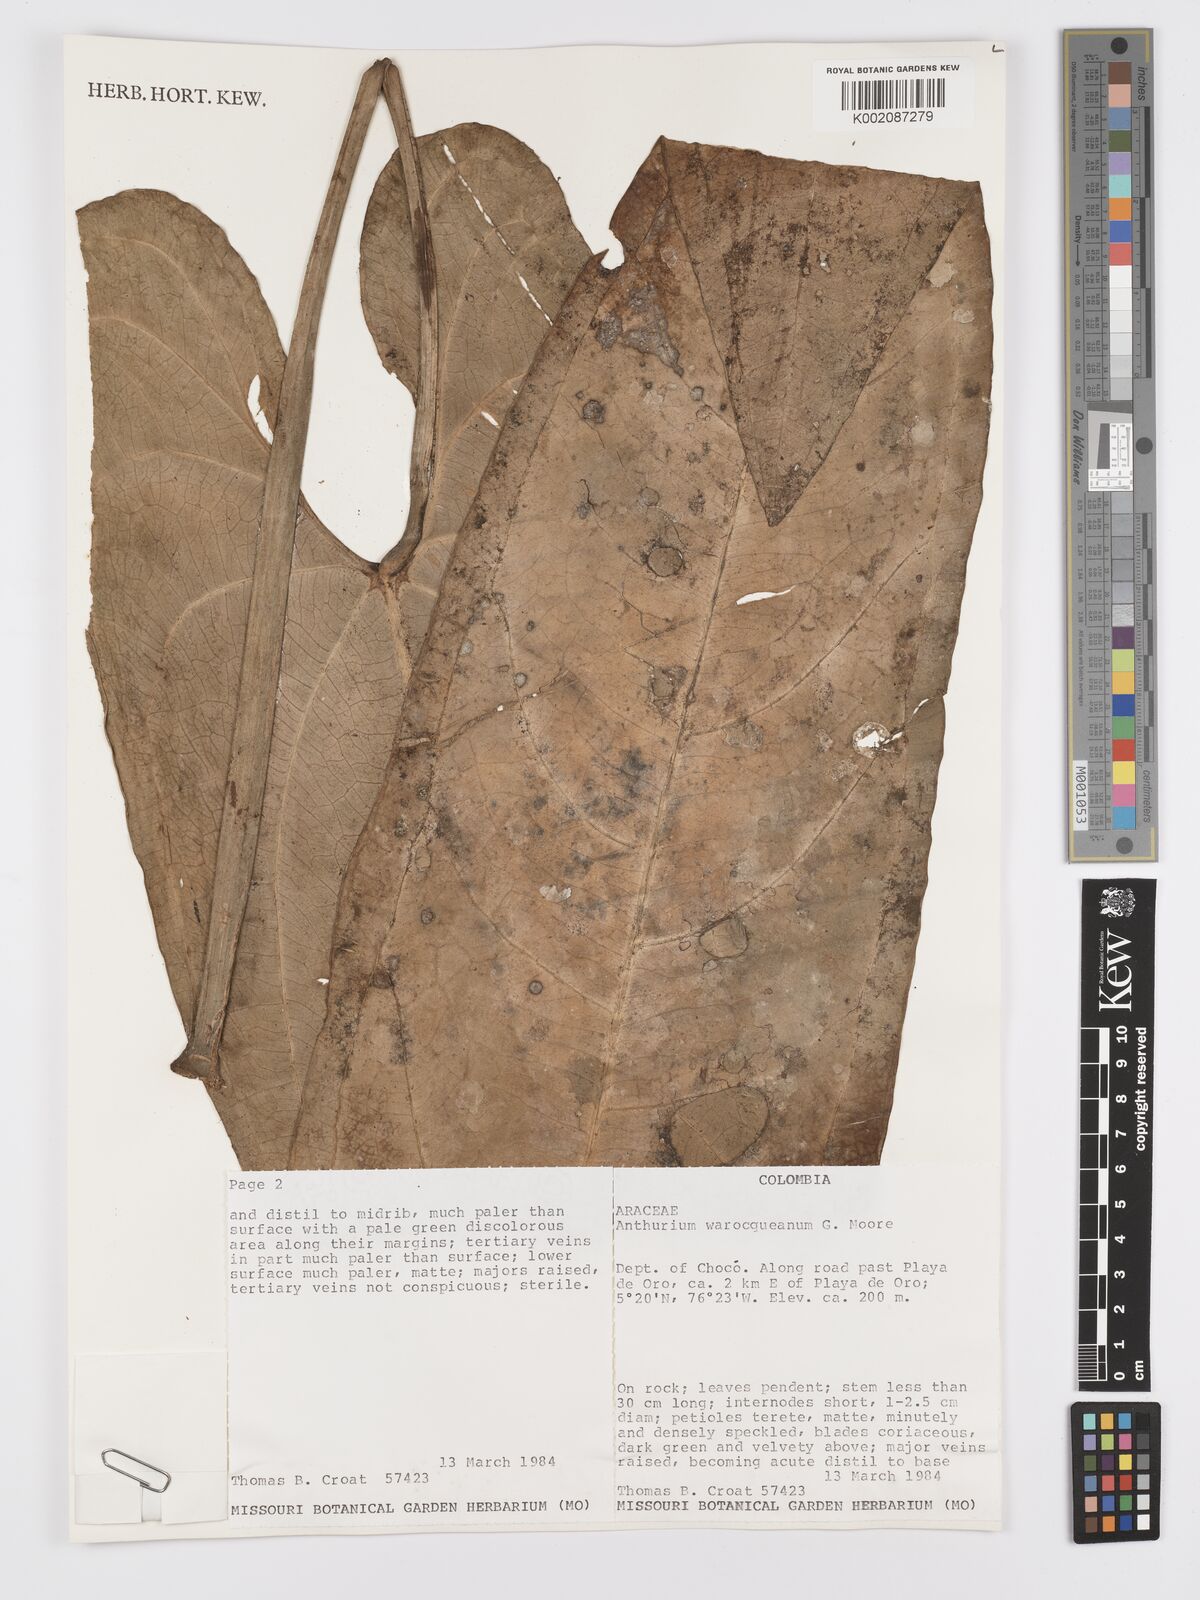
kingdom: Plantae
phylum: Tracheophyta
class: Liliopsida
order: Alismatales
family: Araceae
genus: Anthurium
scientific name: Anthurium warocqueanum
